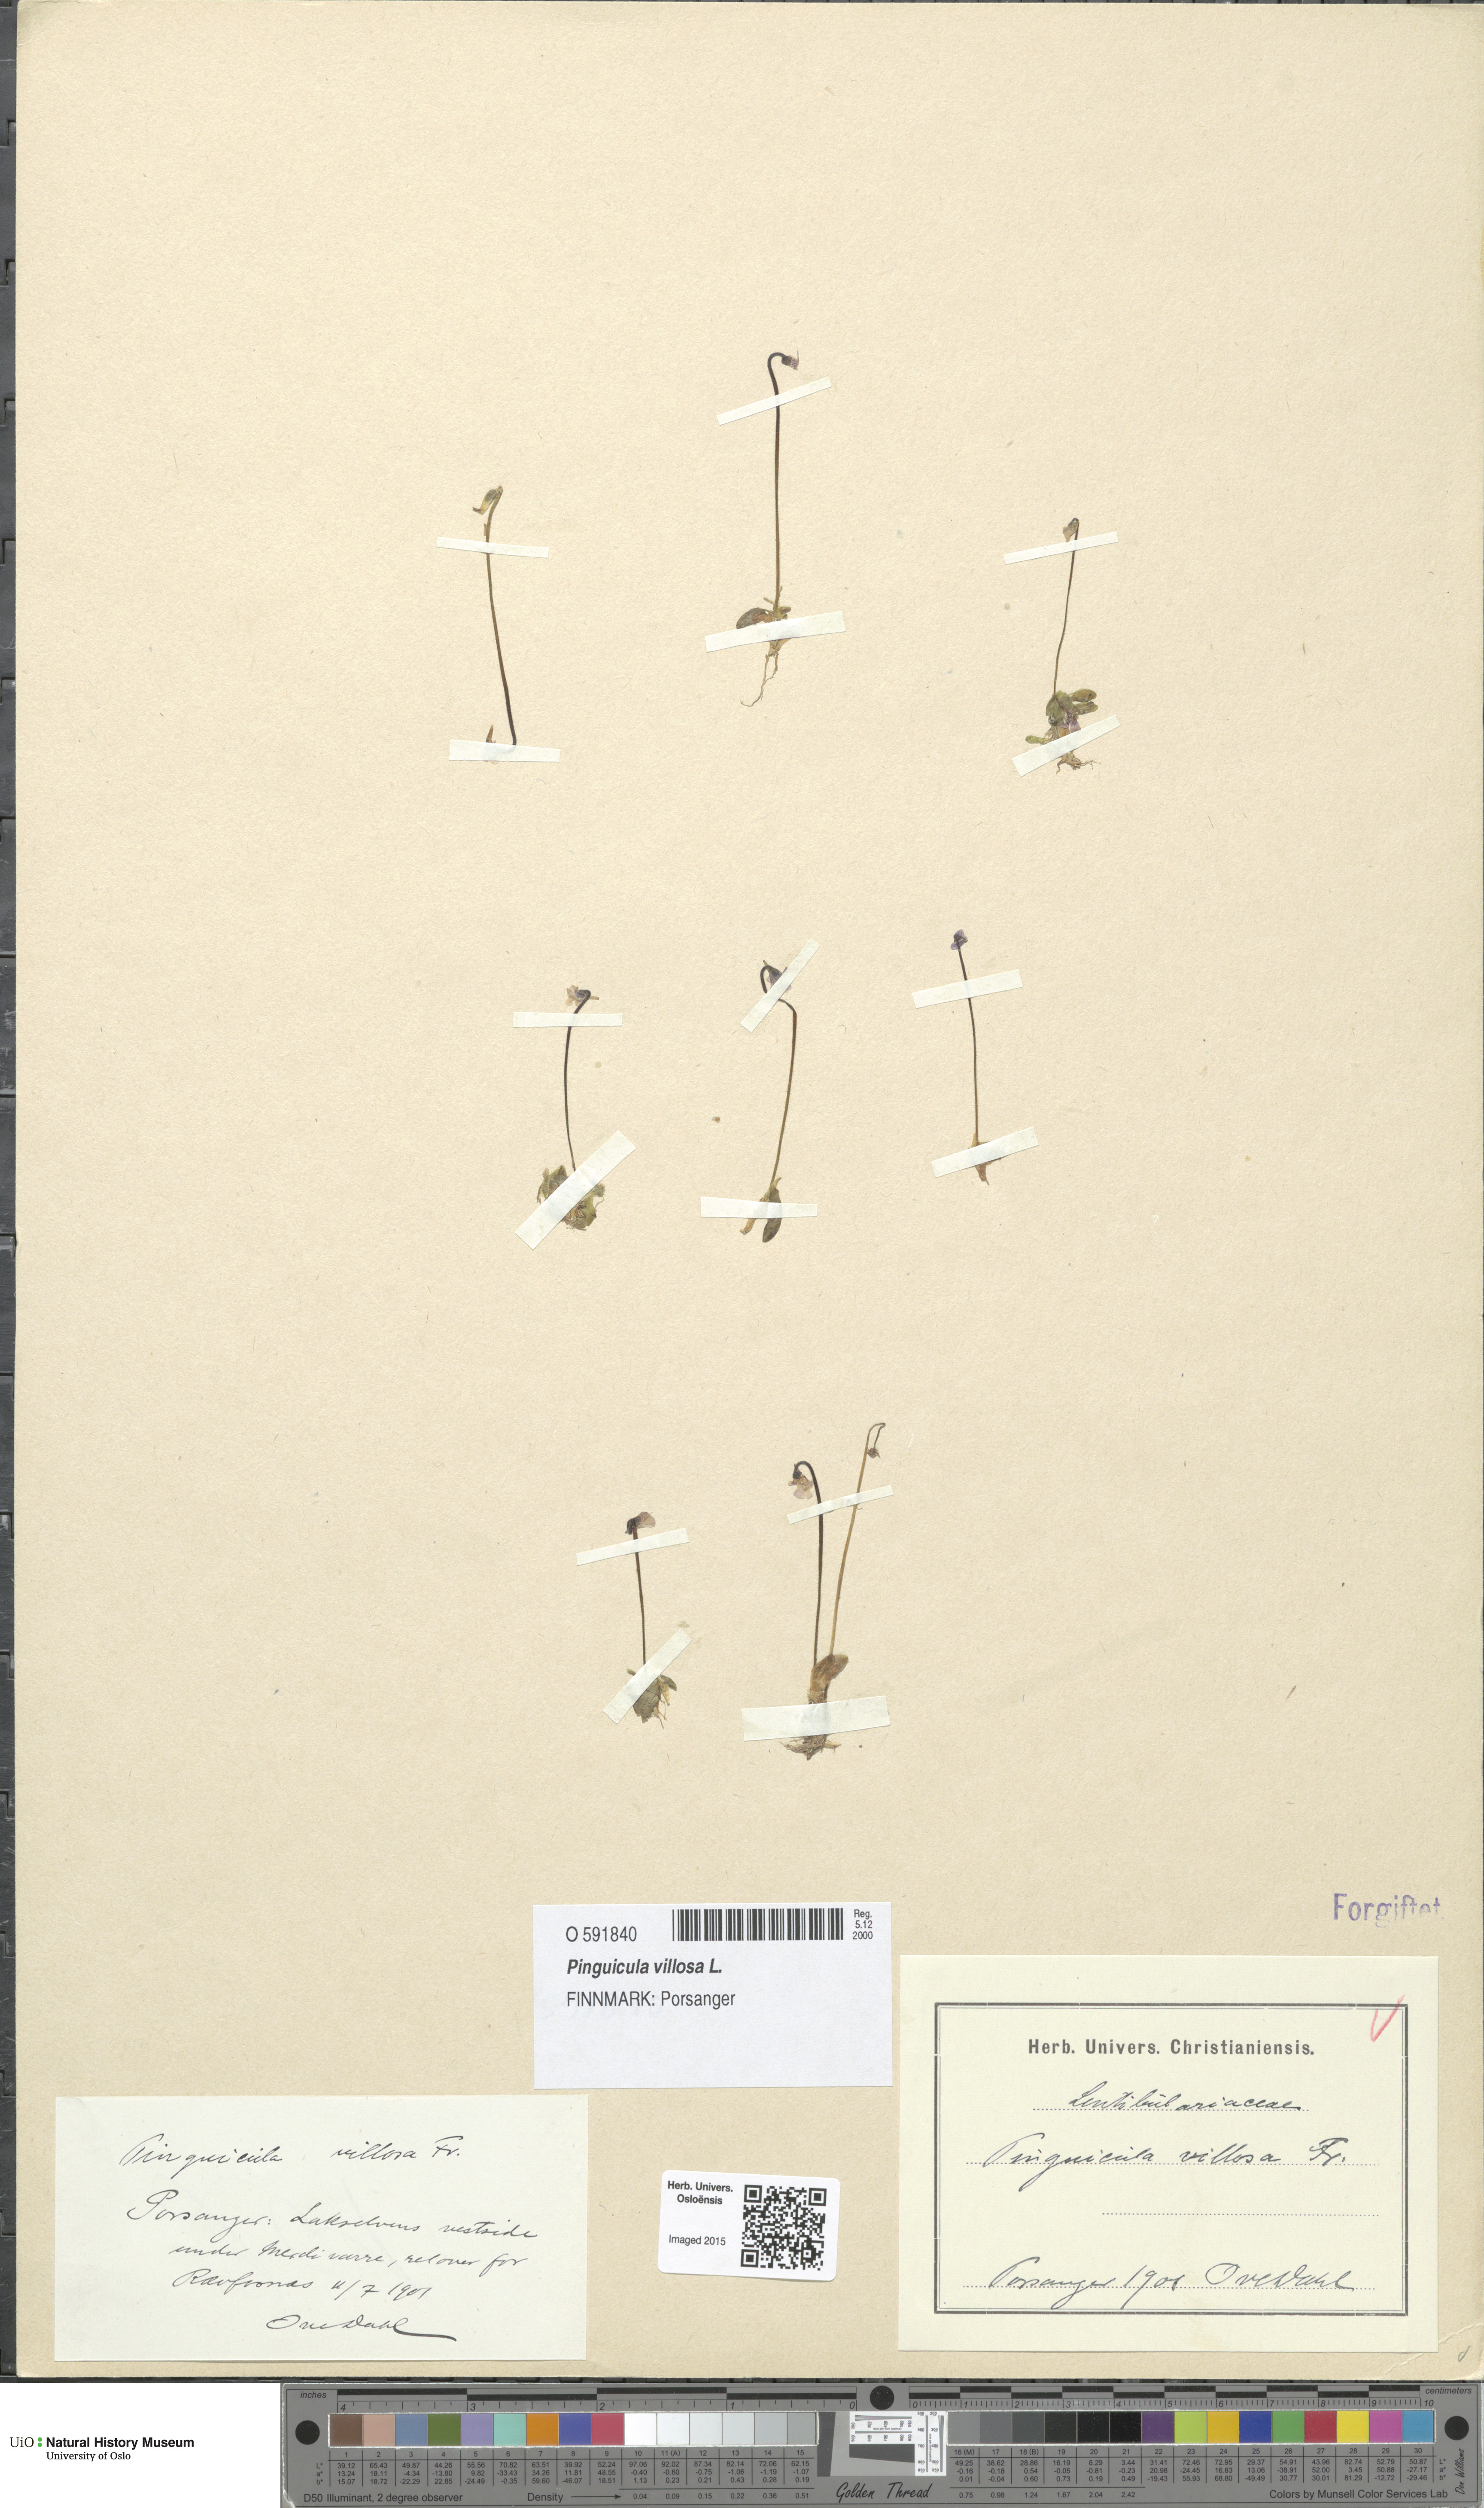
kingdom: Plantae
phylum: Tracheophyta
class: Magnoliopsida
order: Lamiales
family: Lentibulariaceae
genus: Pinguicula
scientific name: Pinguicula villosa
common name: Hairy butterwort
